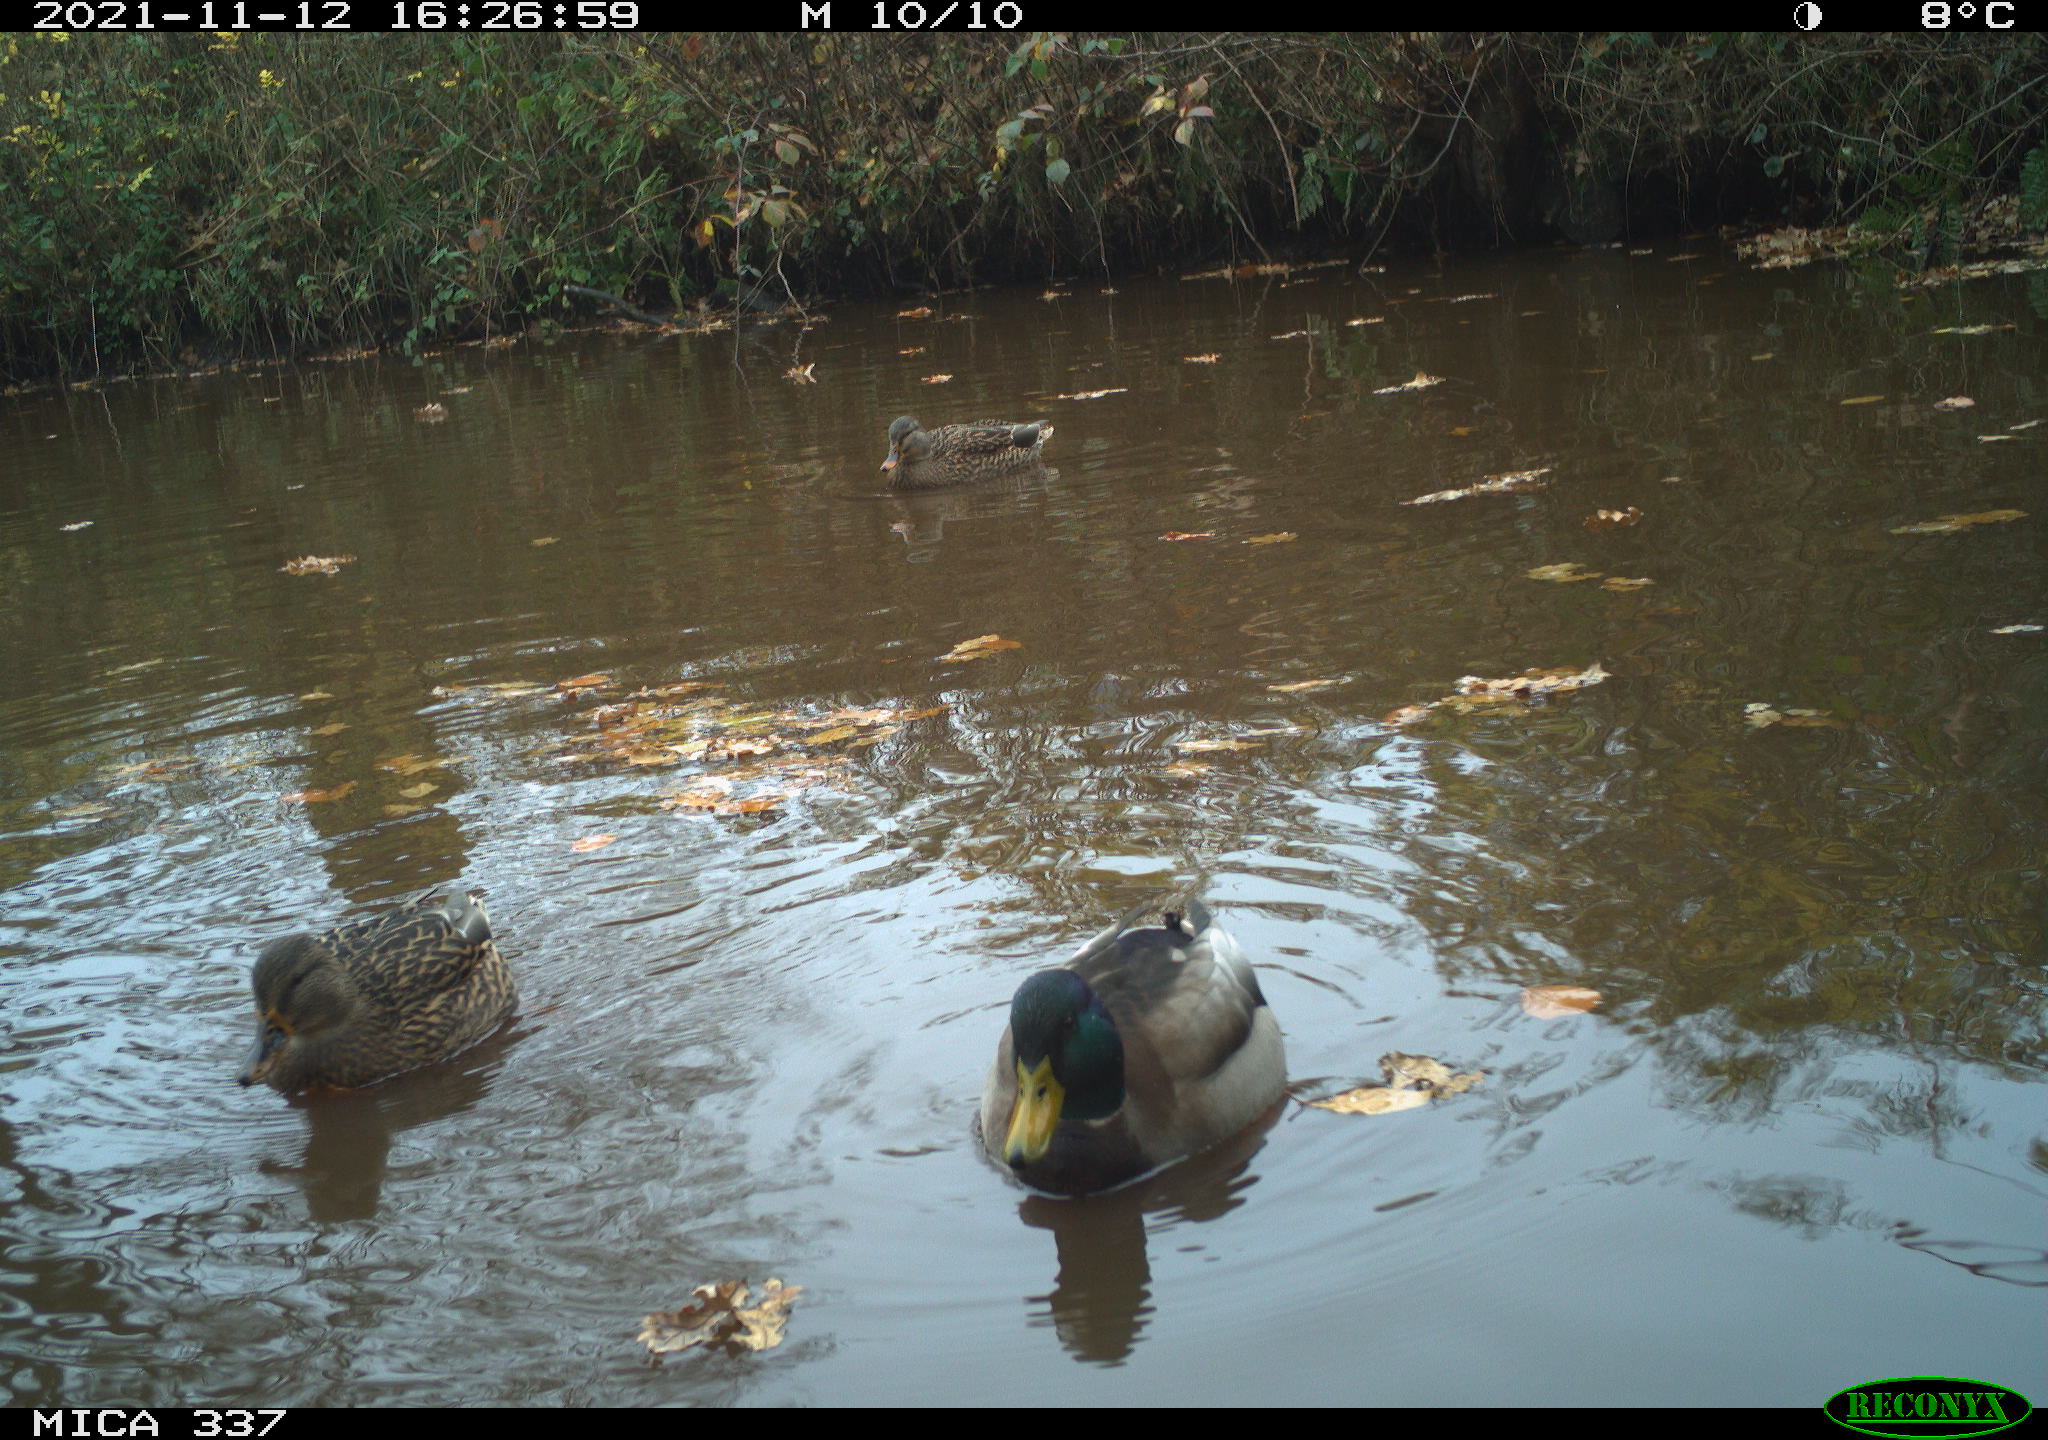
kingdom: Animalia
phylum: Chordata
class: Aves
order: Anseriformes
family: Anatidae
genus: Anas
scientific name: Anas platyrhynchos
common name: Mallard
